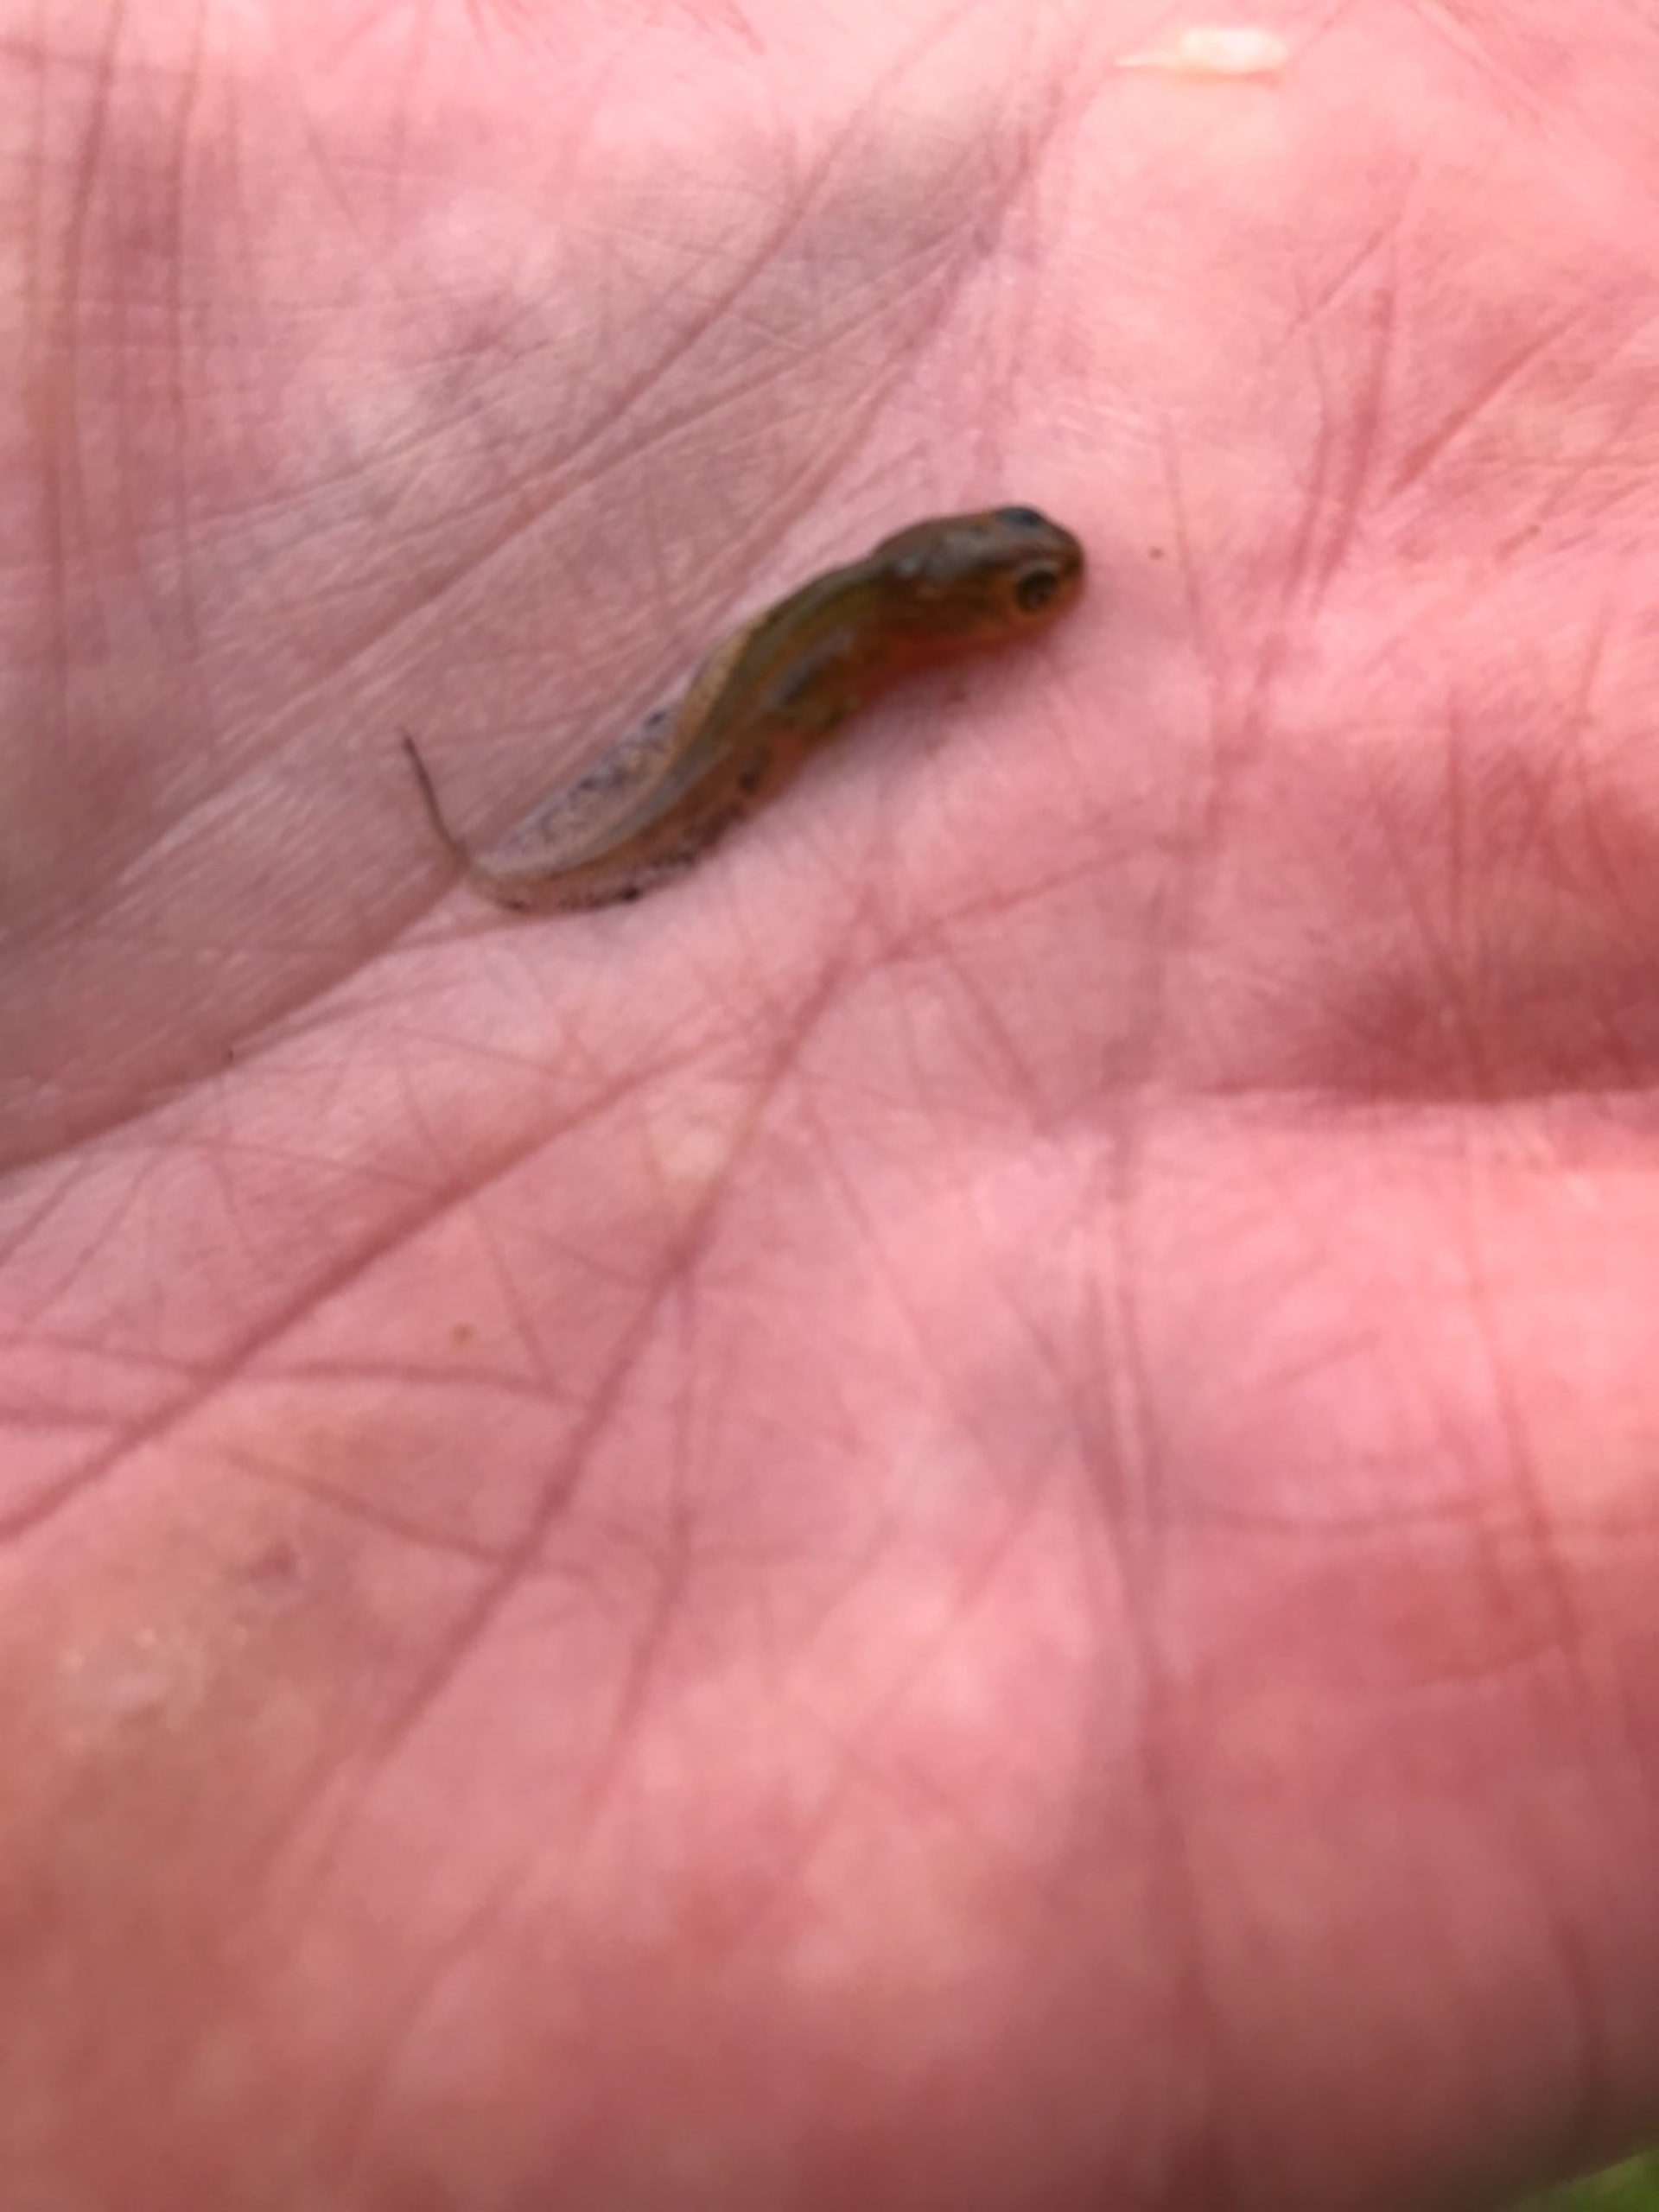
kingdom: Animalia
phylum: Chordata
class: Amphibia
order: Caudata
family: Salamandridae
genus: Triturus
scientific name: Triturus cristatus
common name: Stor vandsalamander
